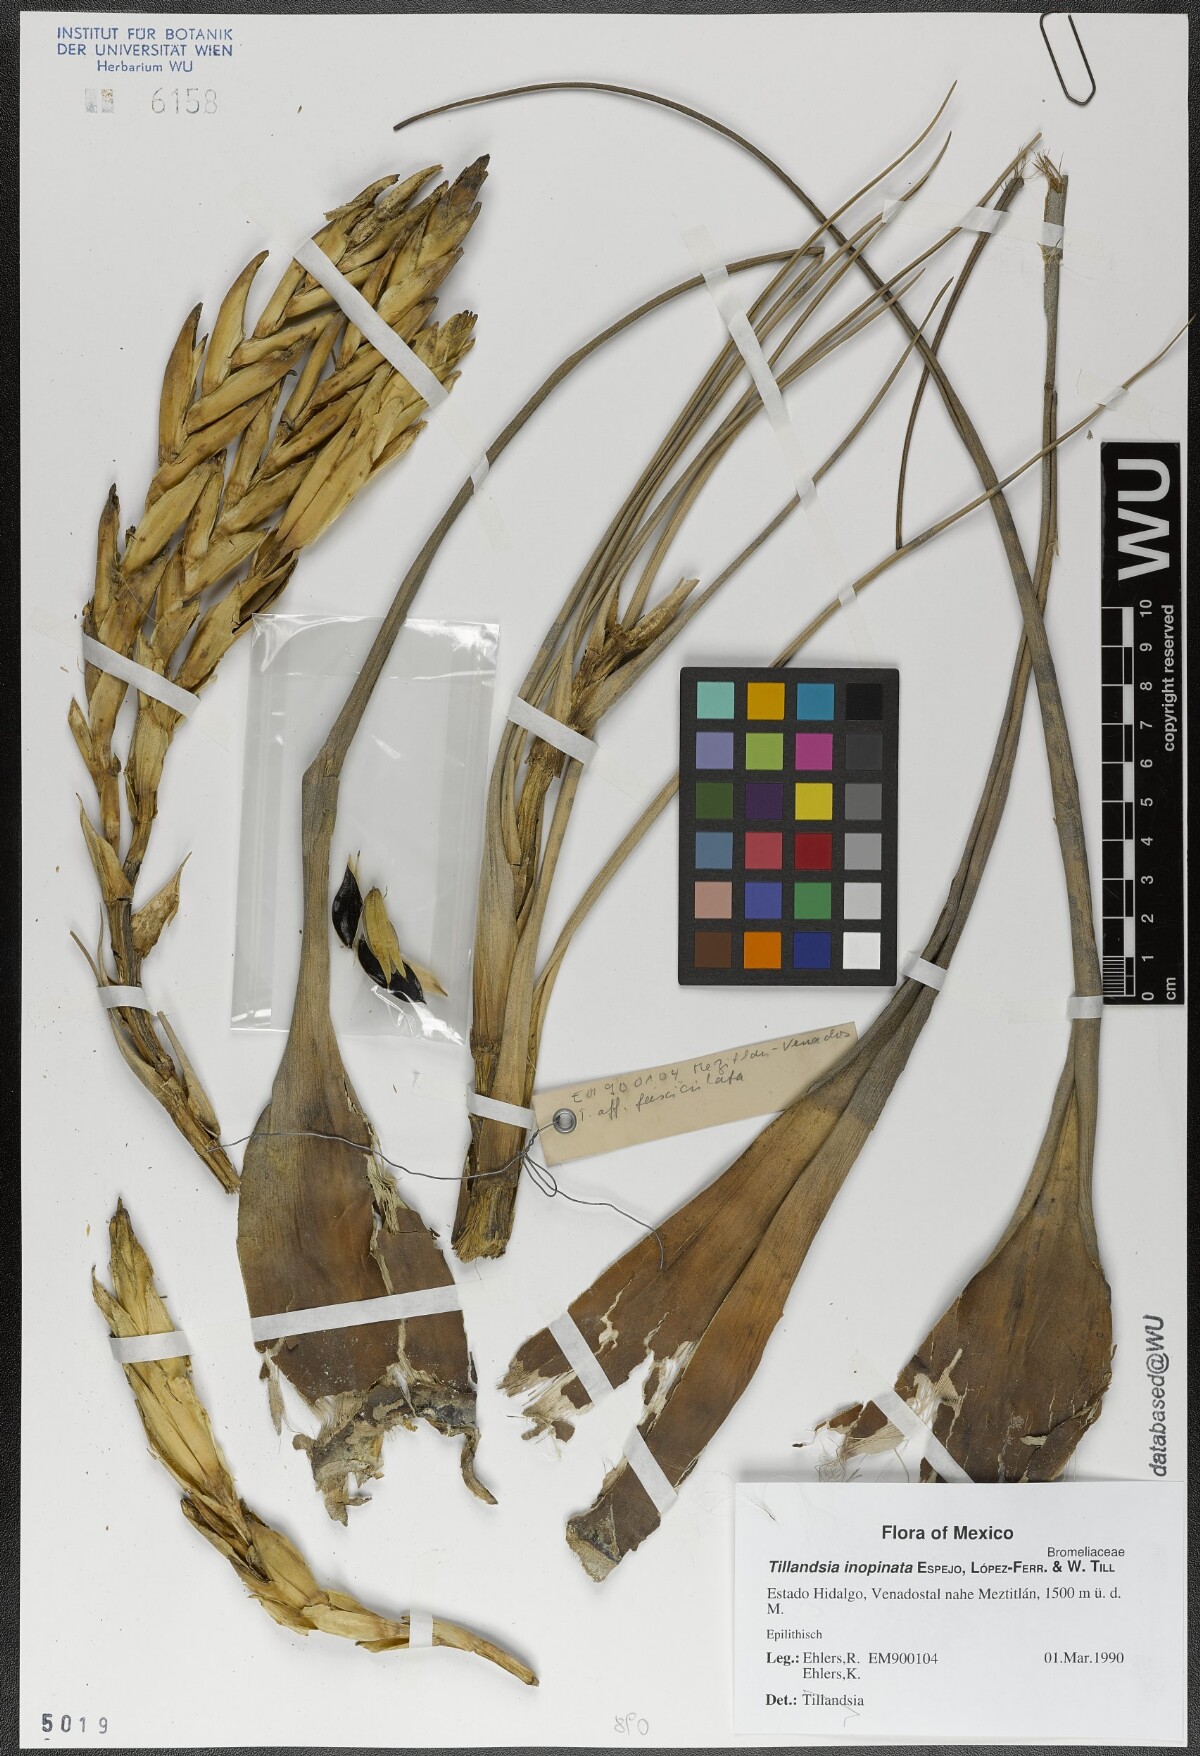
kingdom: Plantae
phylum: Tracheophyta
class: Liliopsida
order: Poales
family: Bromeliaceae
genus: Tillandsia
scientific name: Tillandsia inopinata
